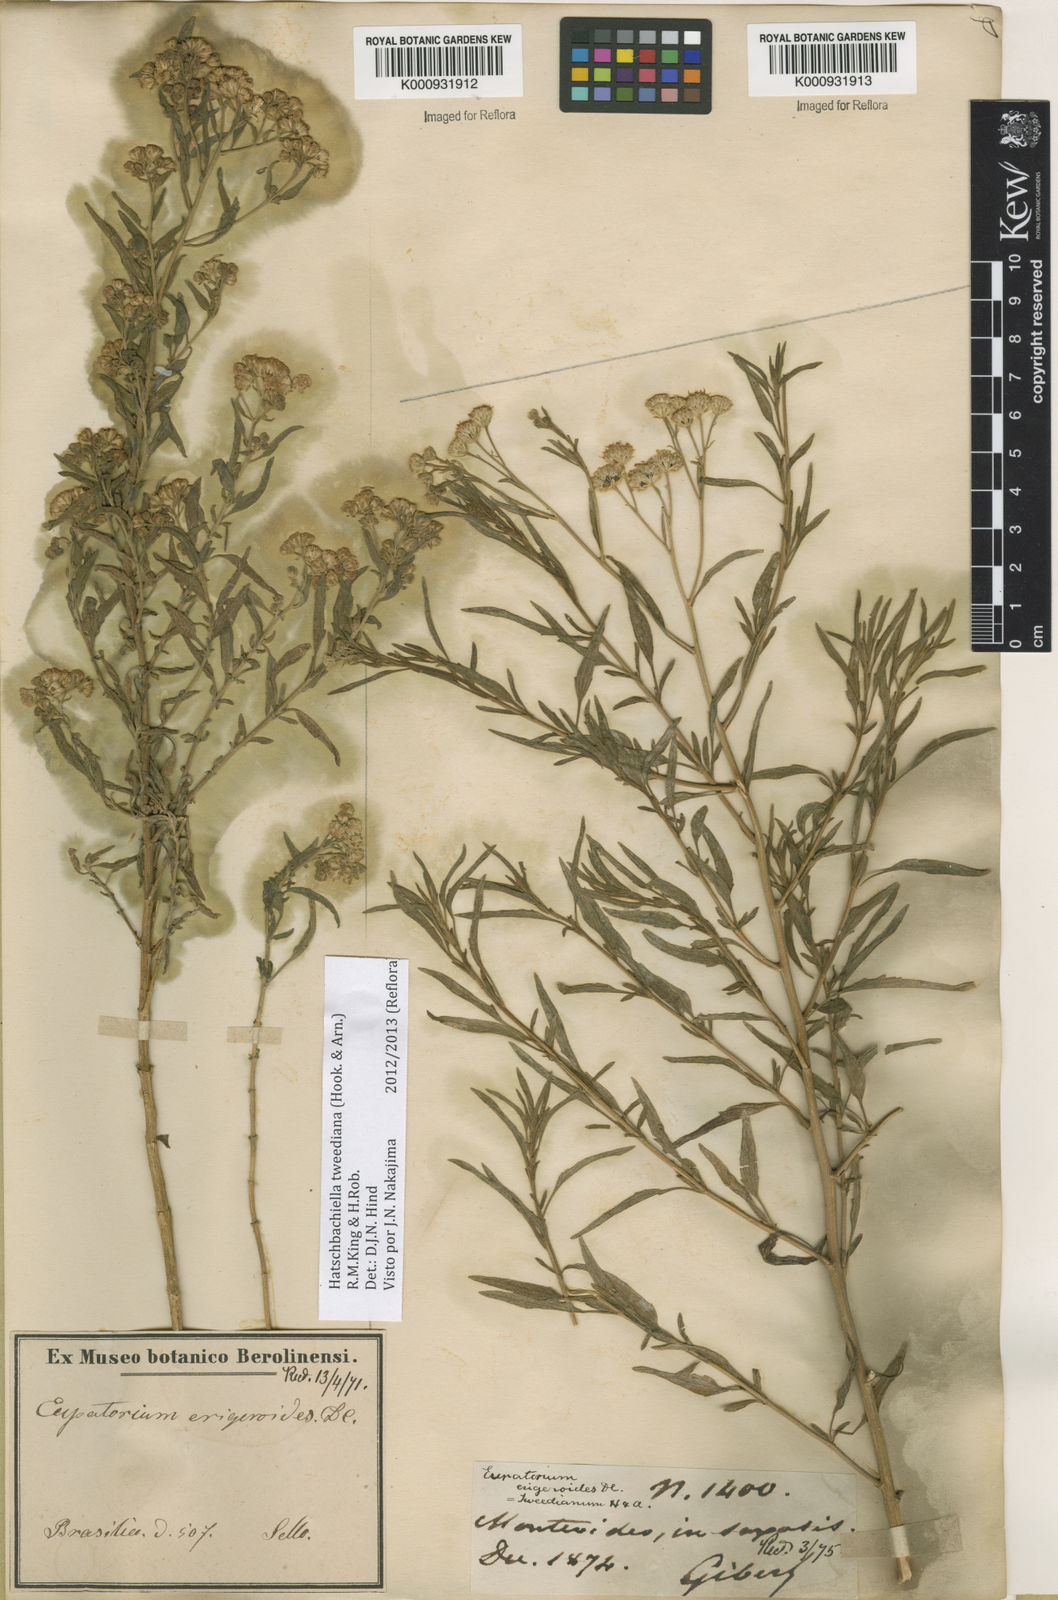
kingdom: Plantae
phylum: Tracheophyta
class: Magnoliopsida
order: Asterales
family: Asteraceae
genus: Stomatanthes
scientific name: Stomatanthes
